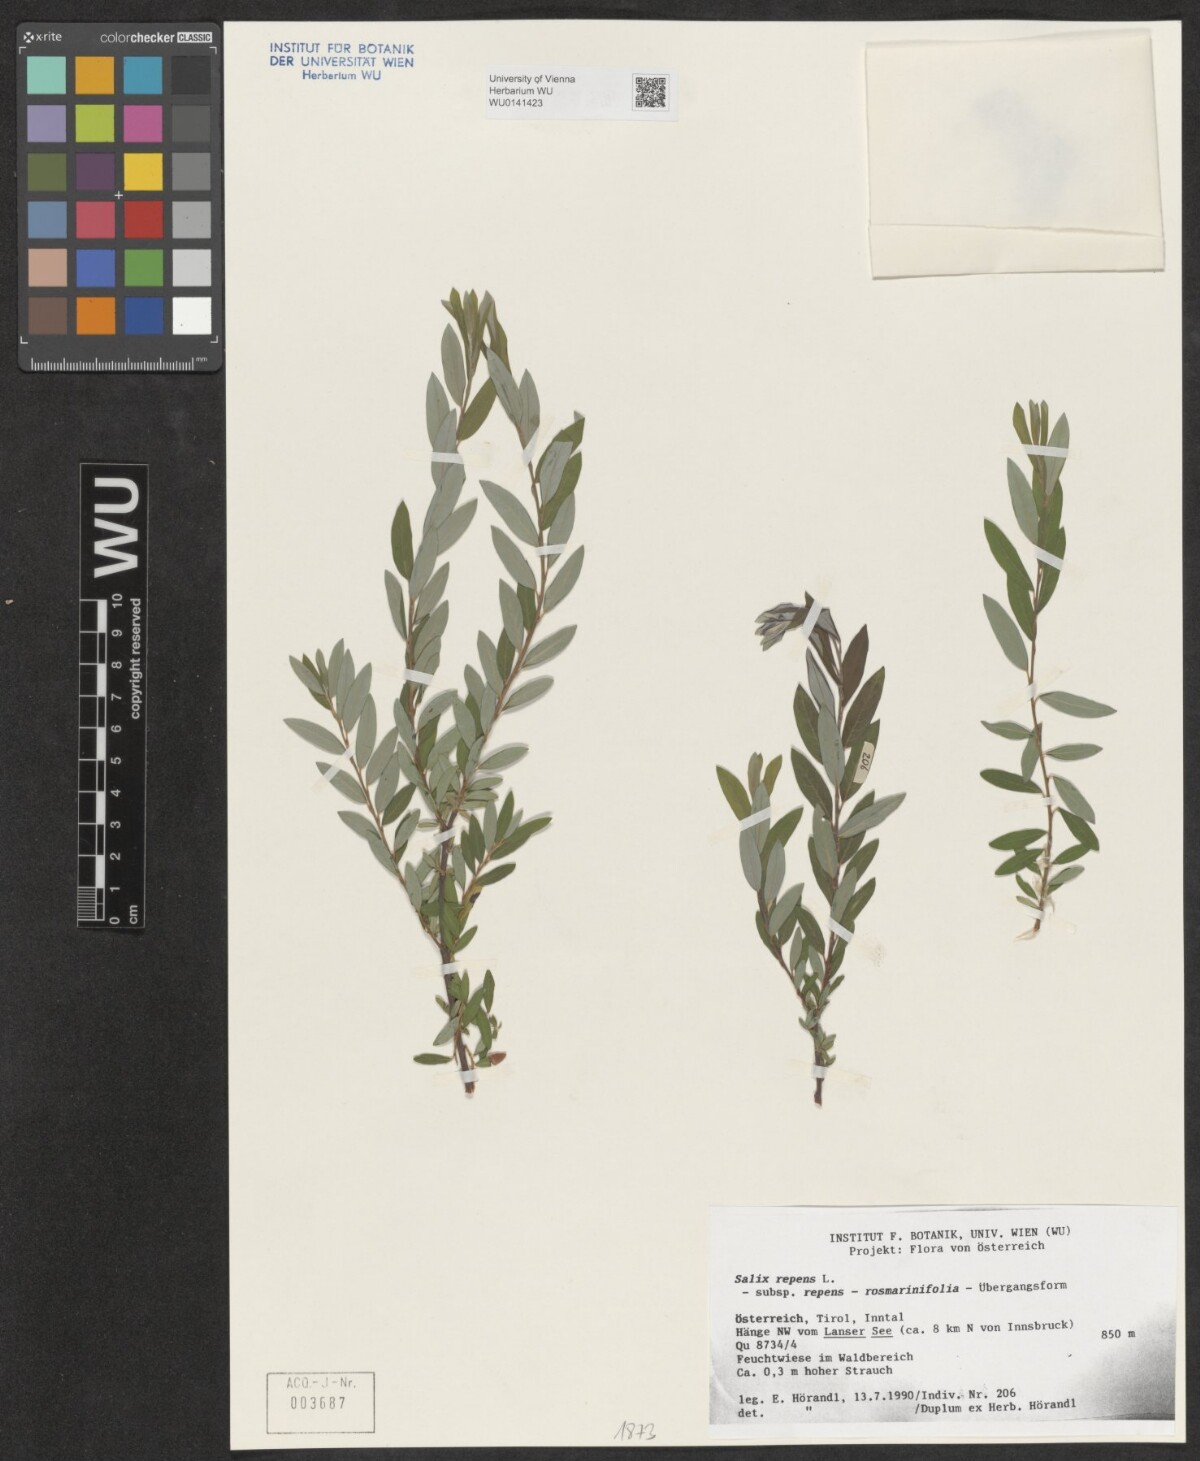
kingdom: Plantae
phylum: Tracheophyta
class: Magnoliopsida
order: Malpighiales
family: Salicaceae
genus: Salix
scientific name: Salix repens
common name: Creeping willow
